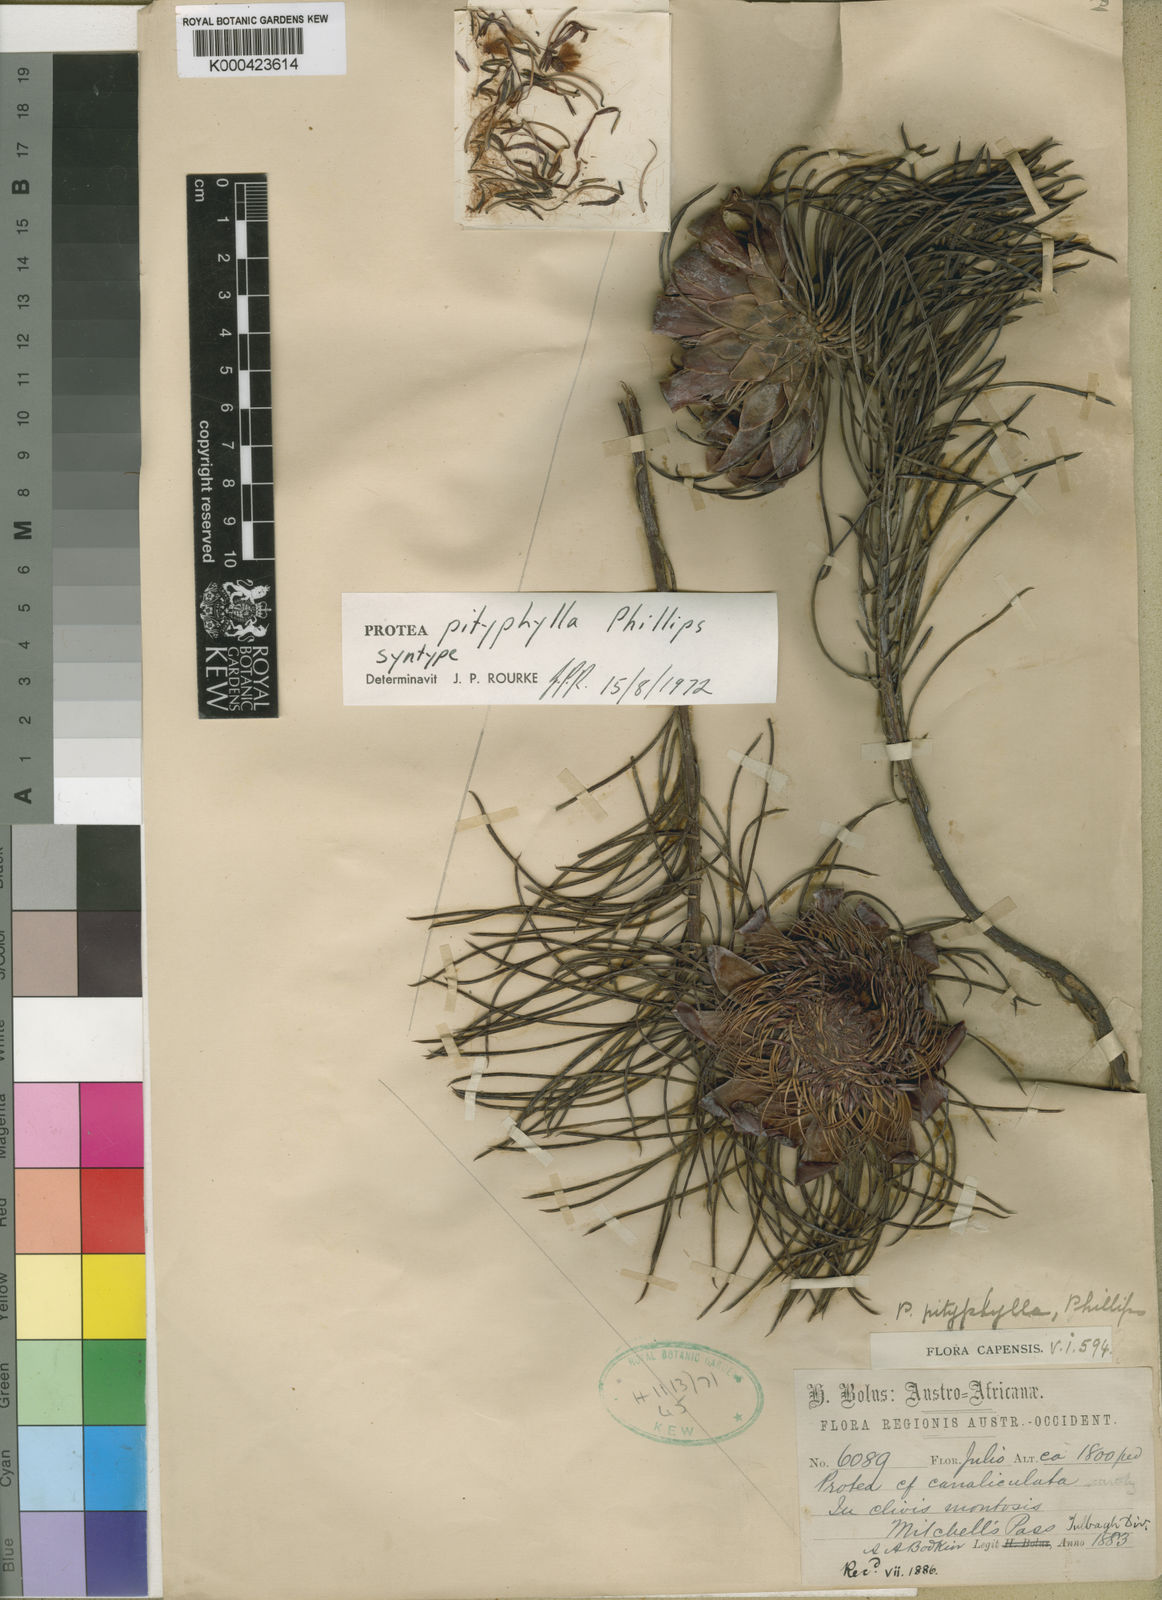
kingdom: Plantae
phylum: Tracheophyta
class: Magnoliopsida
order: Proteales
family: Proteaceae
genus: Protea
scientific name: Protea pityphylla
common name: Ceres sugarbush
